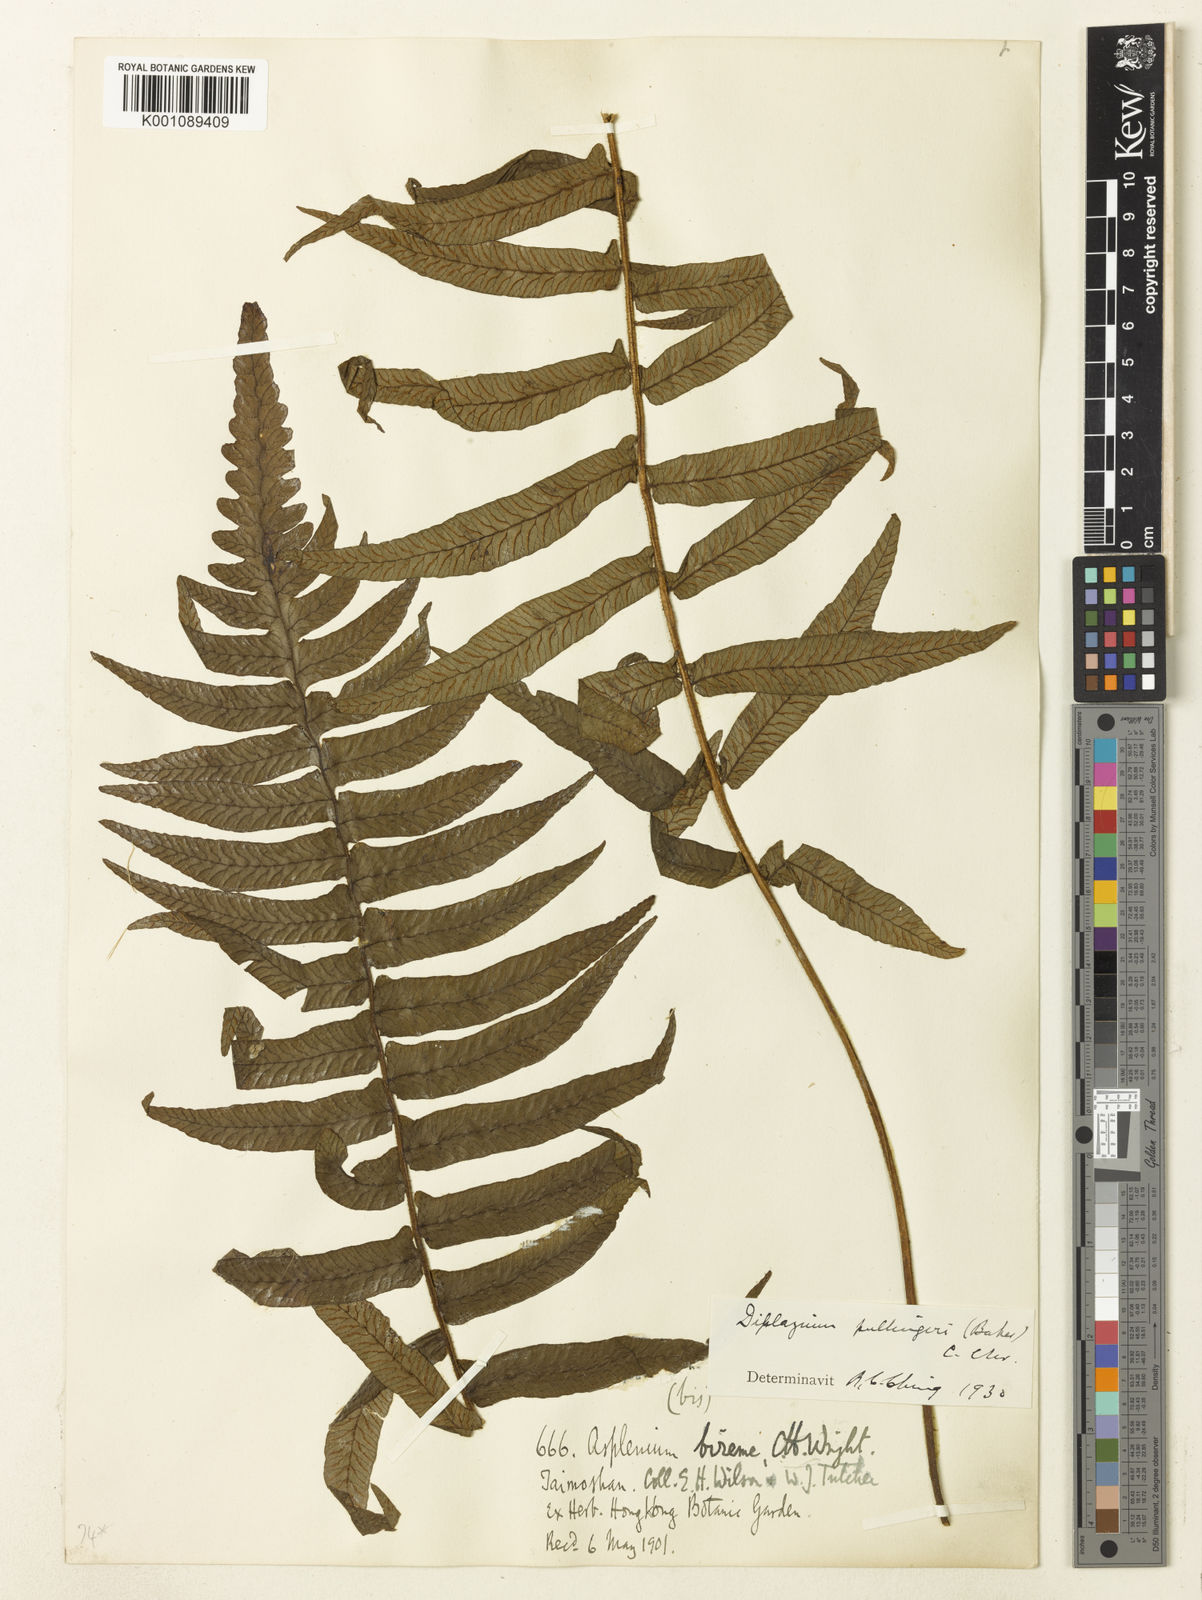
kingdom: Plantae
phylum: Tracheophyta
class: Polypodiopsida
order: Polypodiales
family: Athyriaceae
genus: Diplazium
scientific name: Diplazium pullingeri
